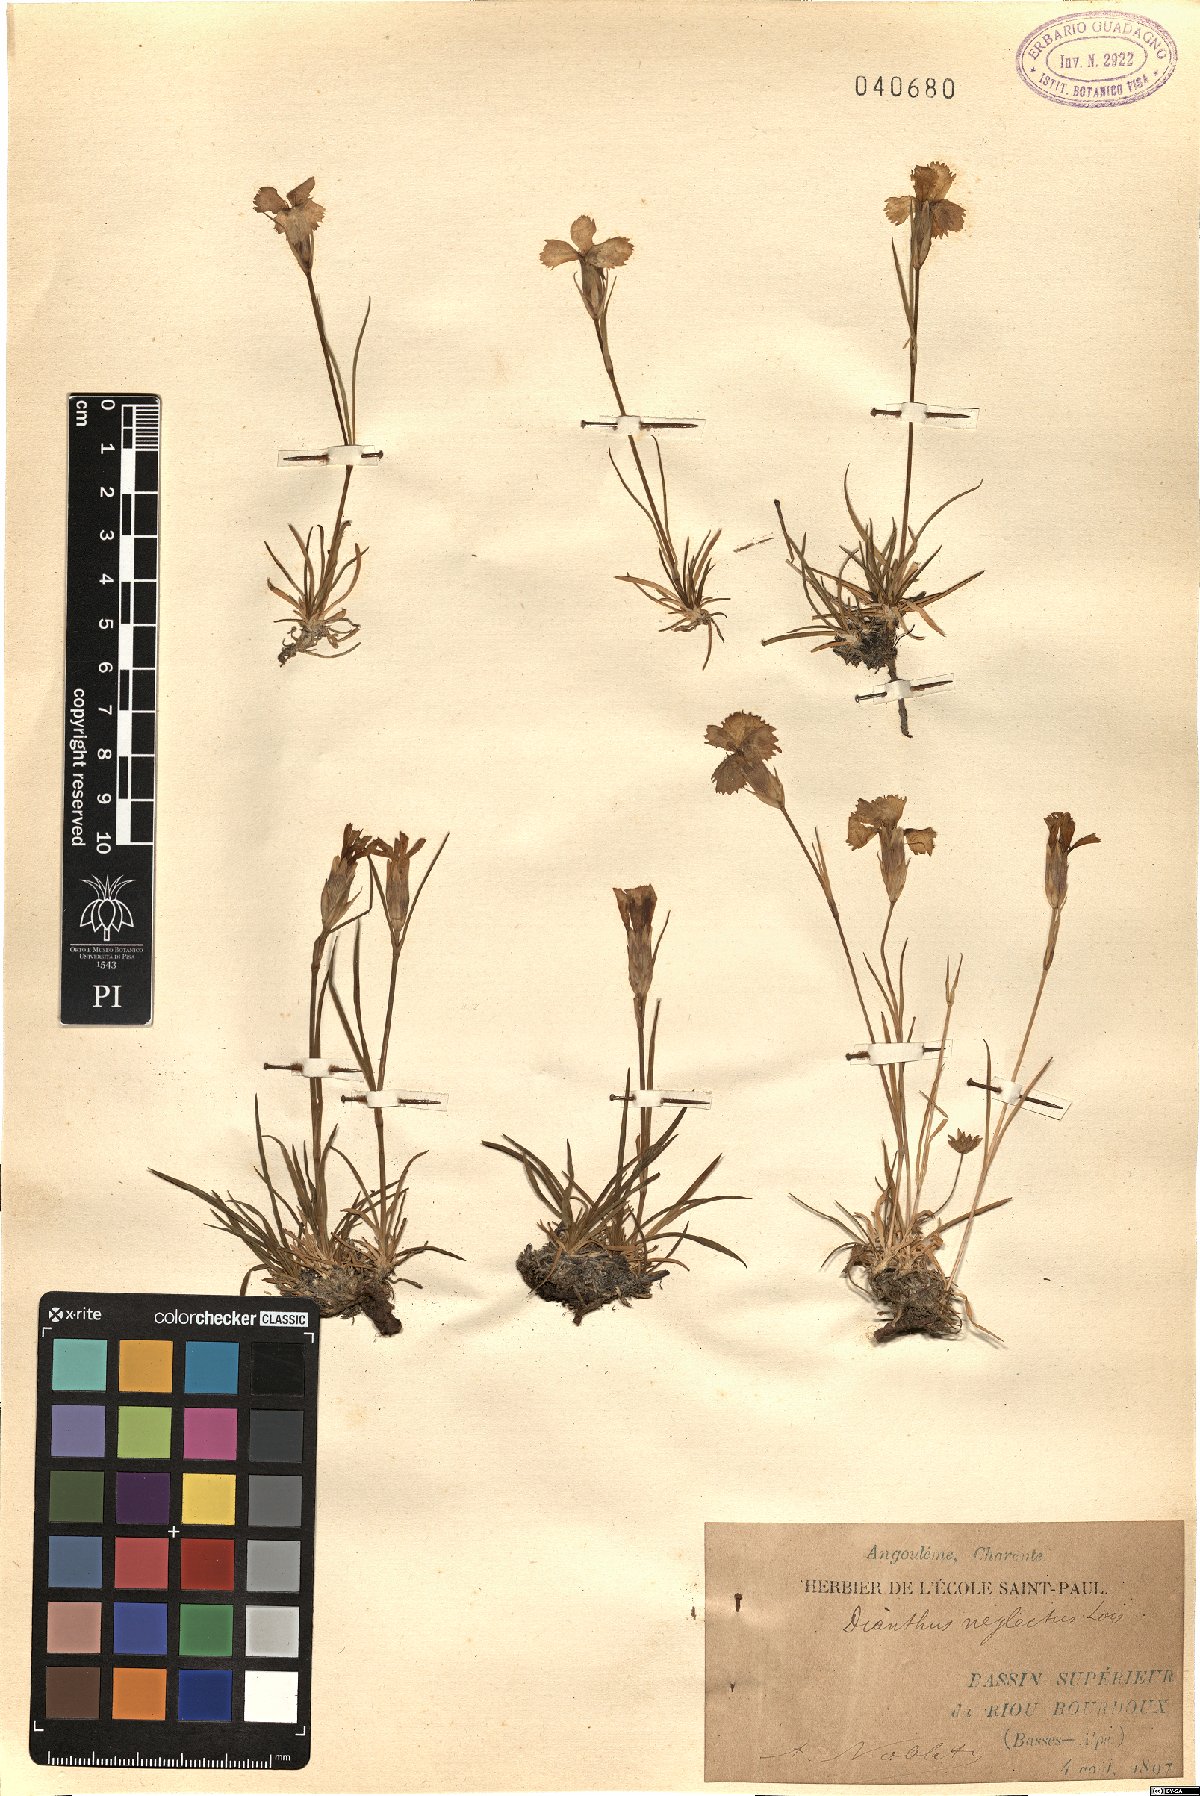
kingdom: Plantae
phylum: Tracheophyta
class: Magnoliopsida
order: Caryophyllales
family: Caryophyllaceae
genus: Dianthus
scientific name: Dianthus seguieri
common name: Ragged pink
